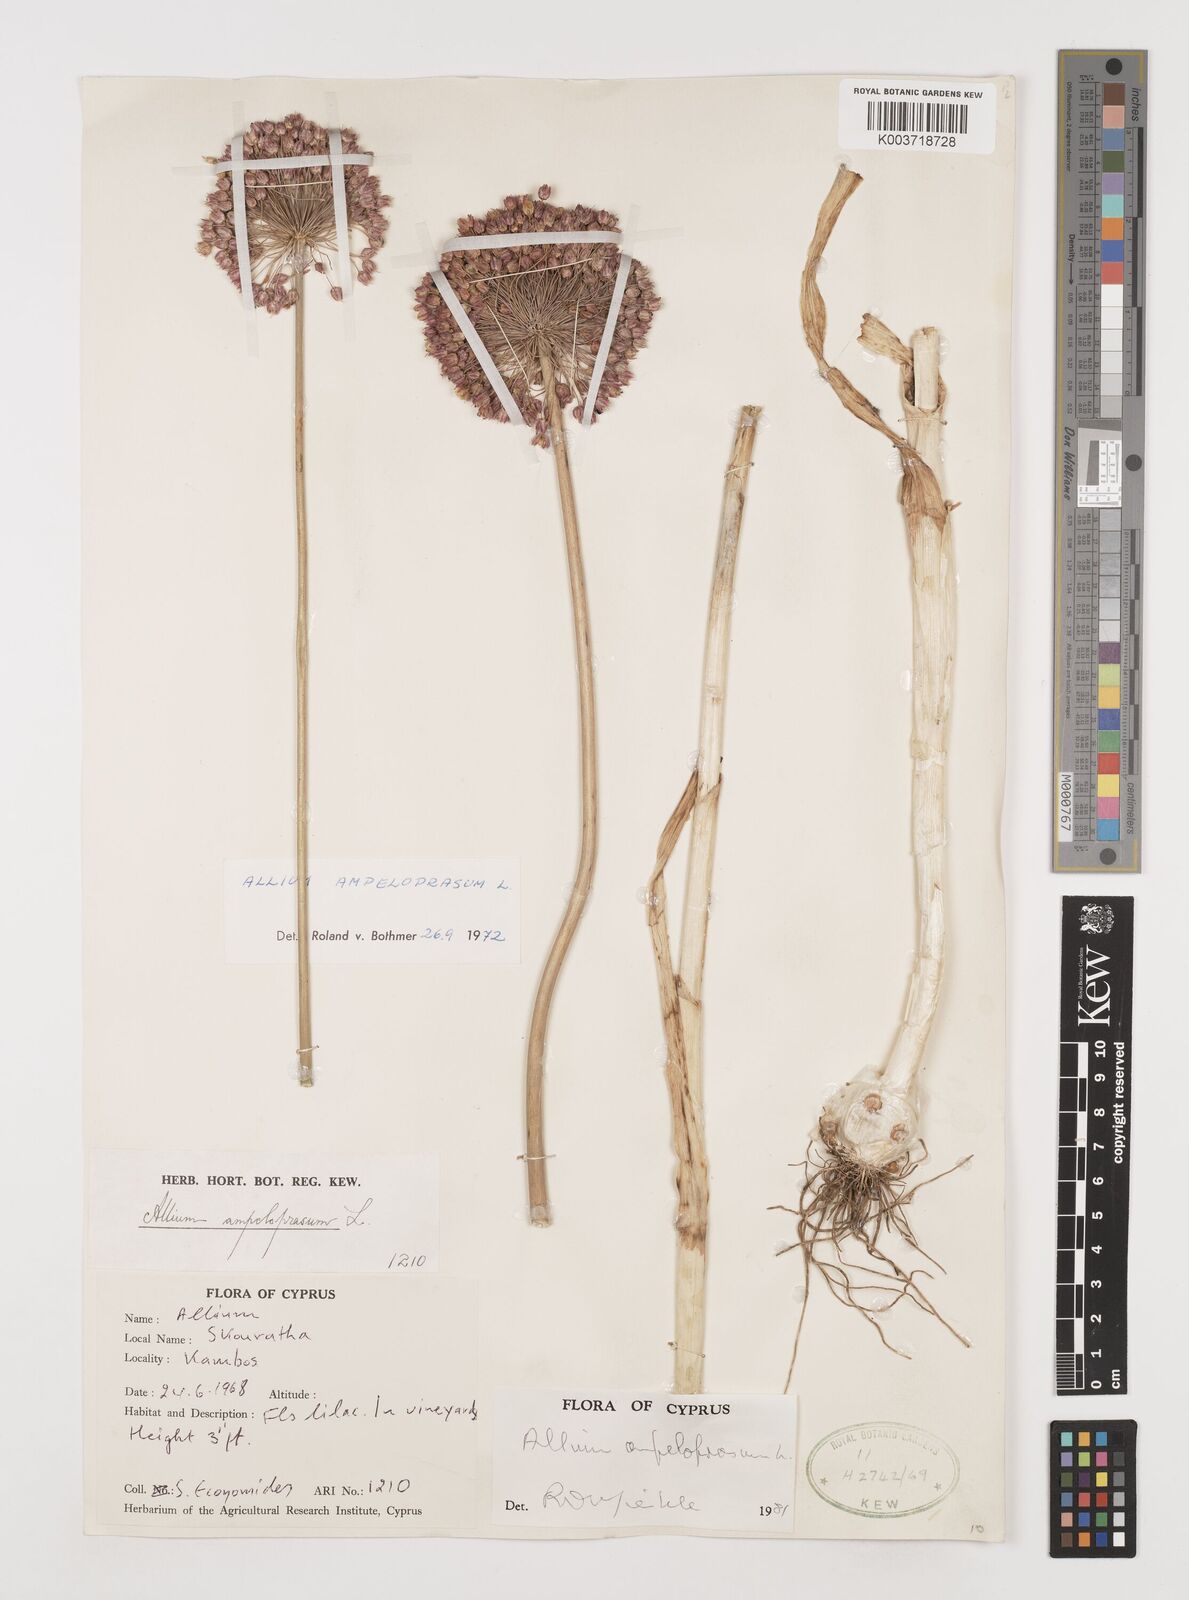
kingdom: Plantae
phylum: Tracheophyta
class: Liliopsida
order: Asparagales
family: Amaryllidaceae
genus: Allium
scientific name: Allium ampeloprasum
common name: Wild leek
